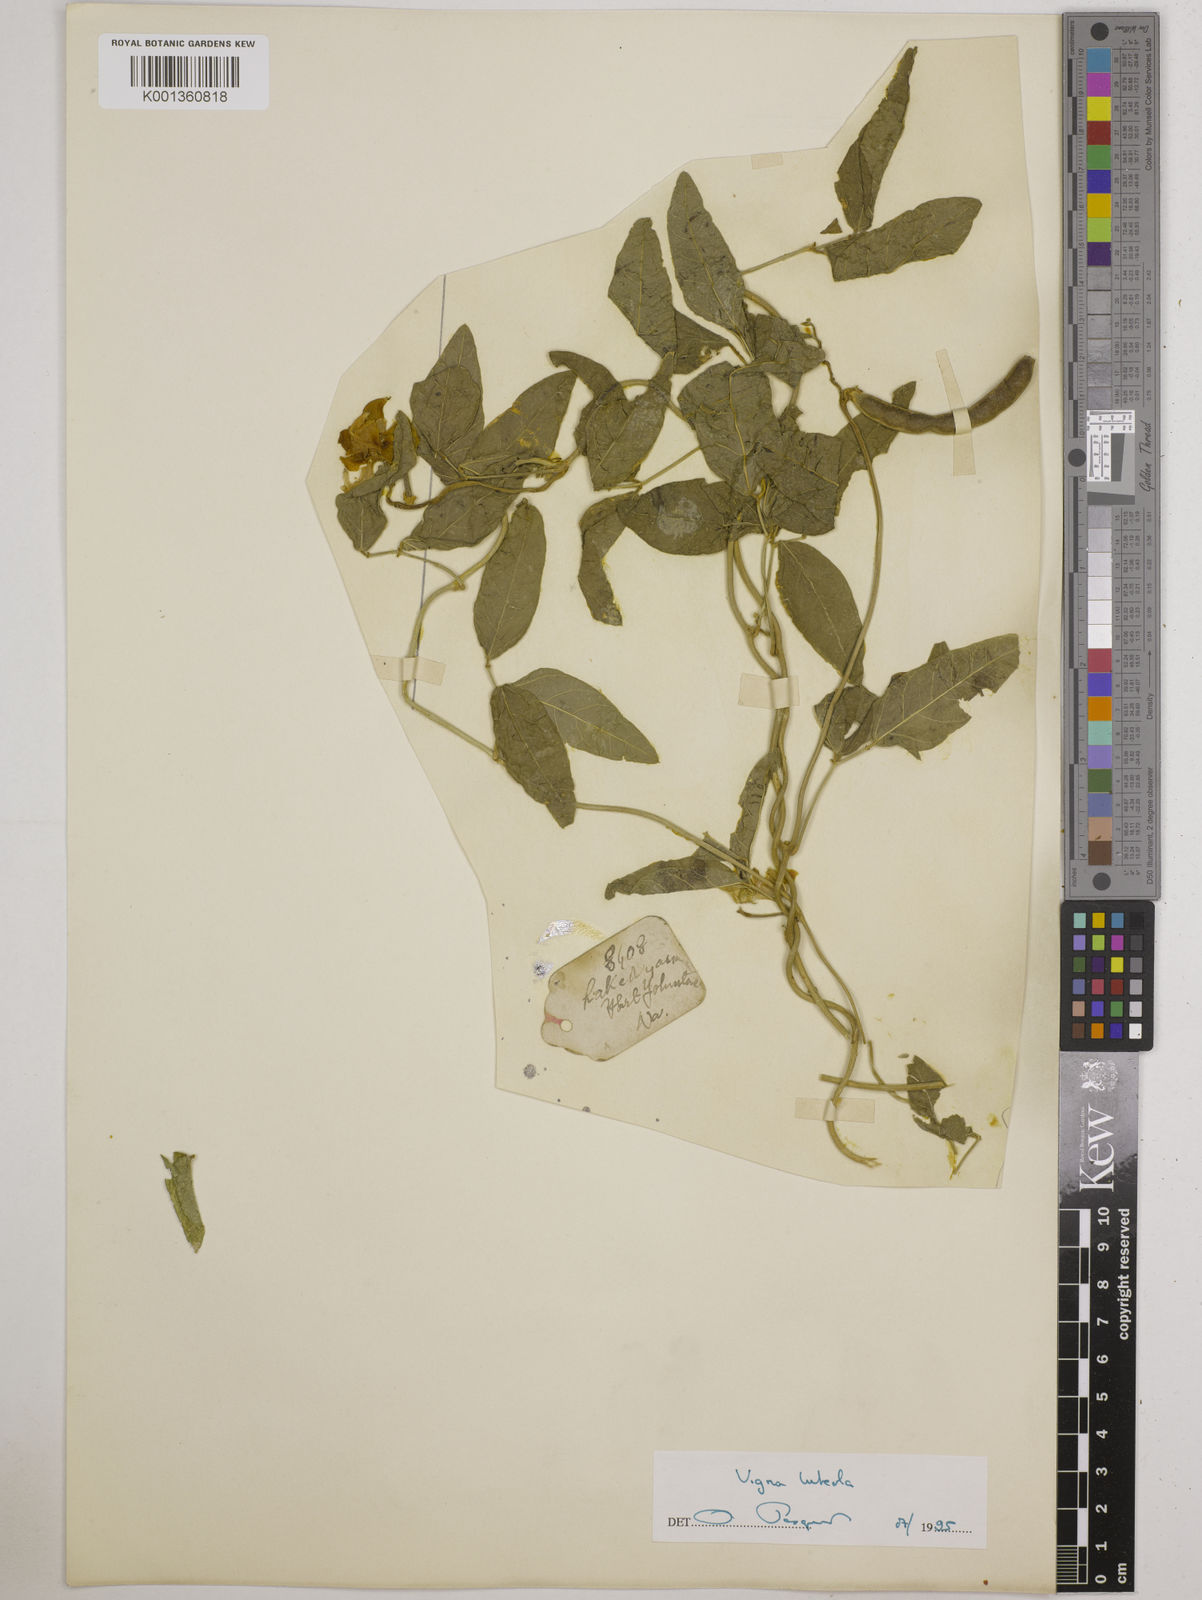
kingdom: Plantae
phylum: Tracheophyta
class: Magnoliopsida
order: Fabales
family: Fabaceae
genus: Vigna
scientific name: Vigna luteola
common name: Hairypod cowpea
